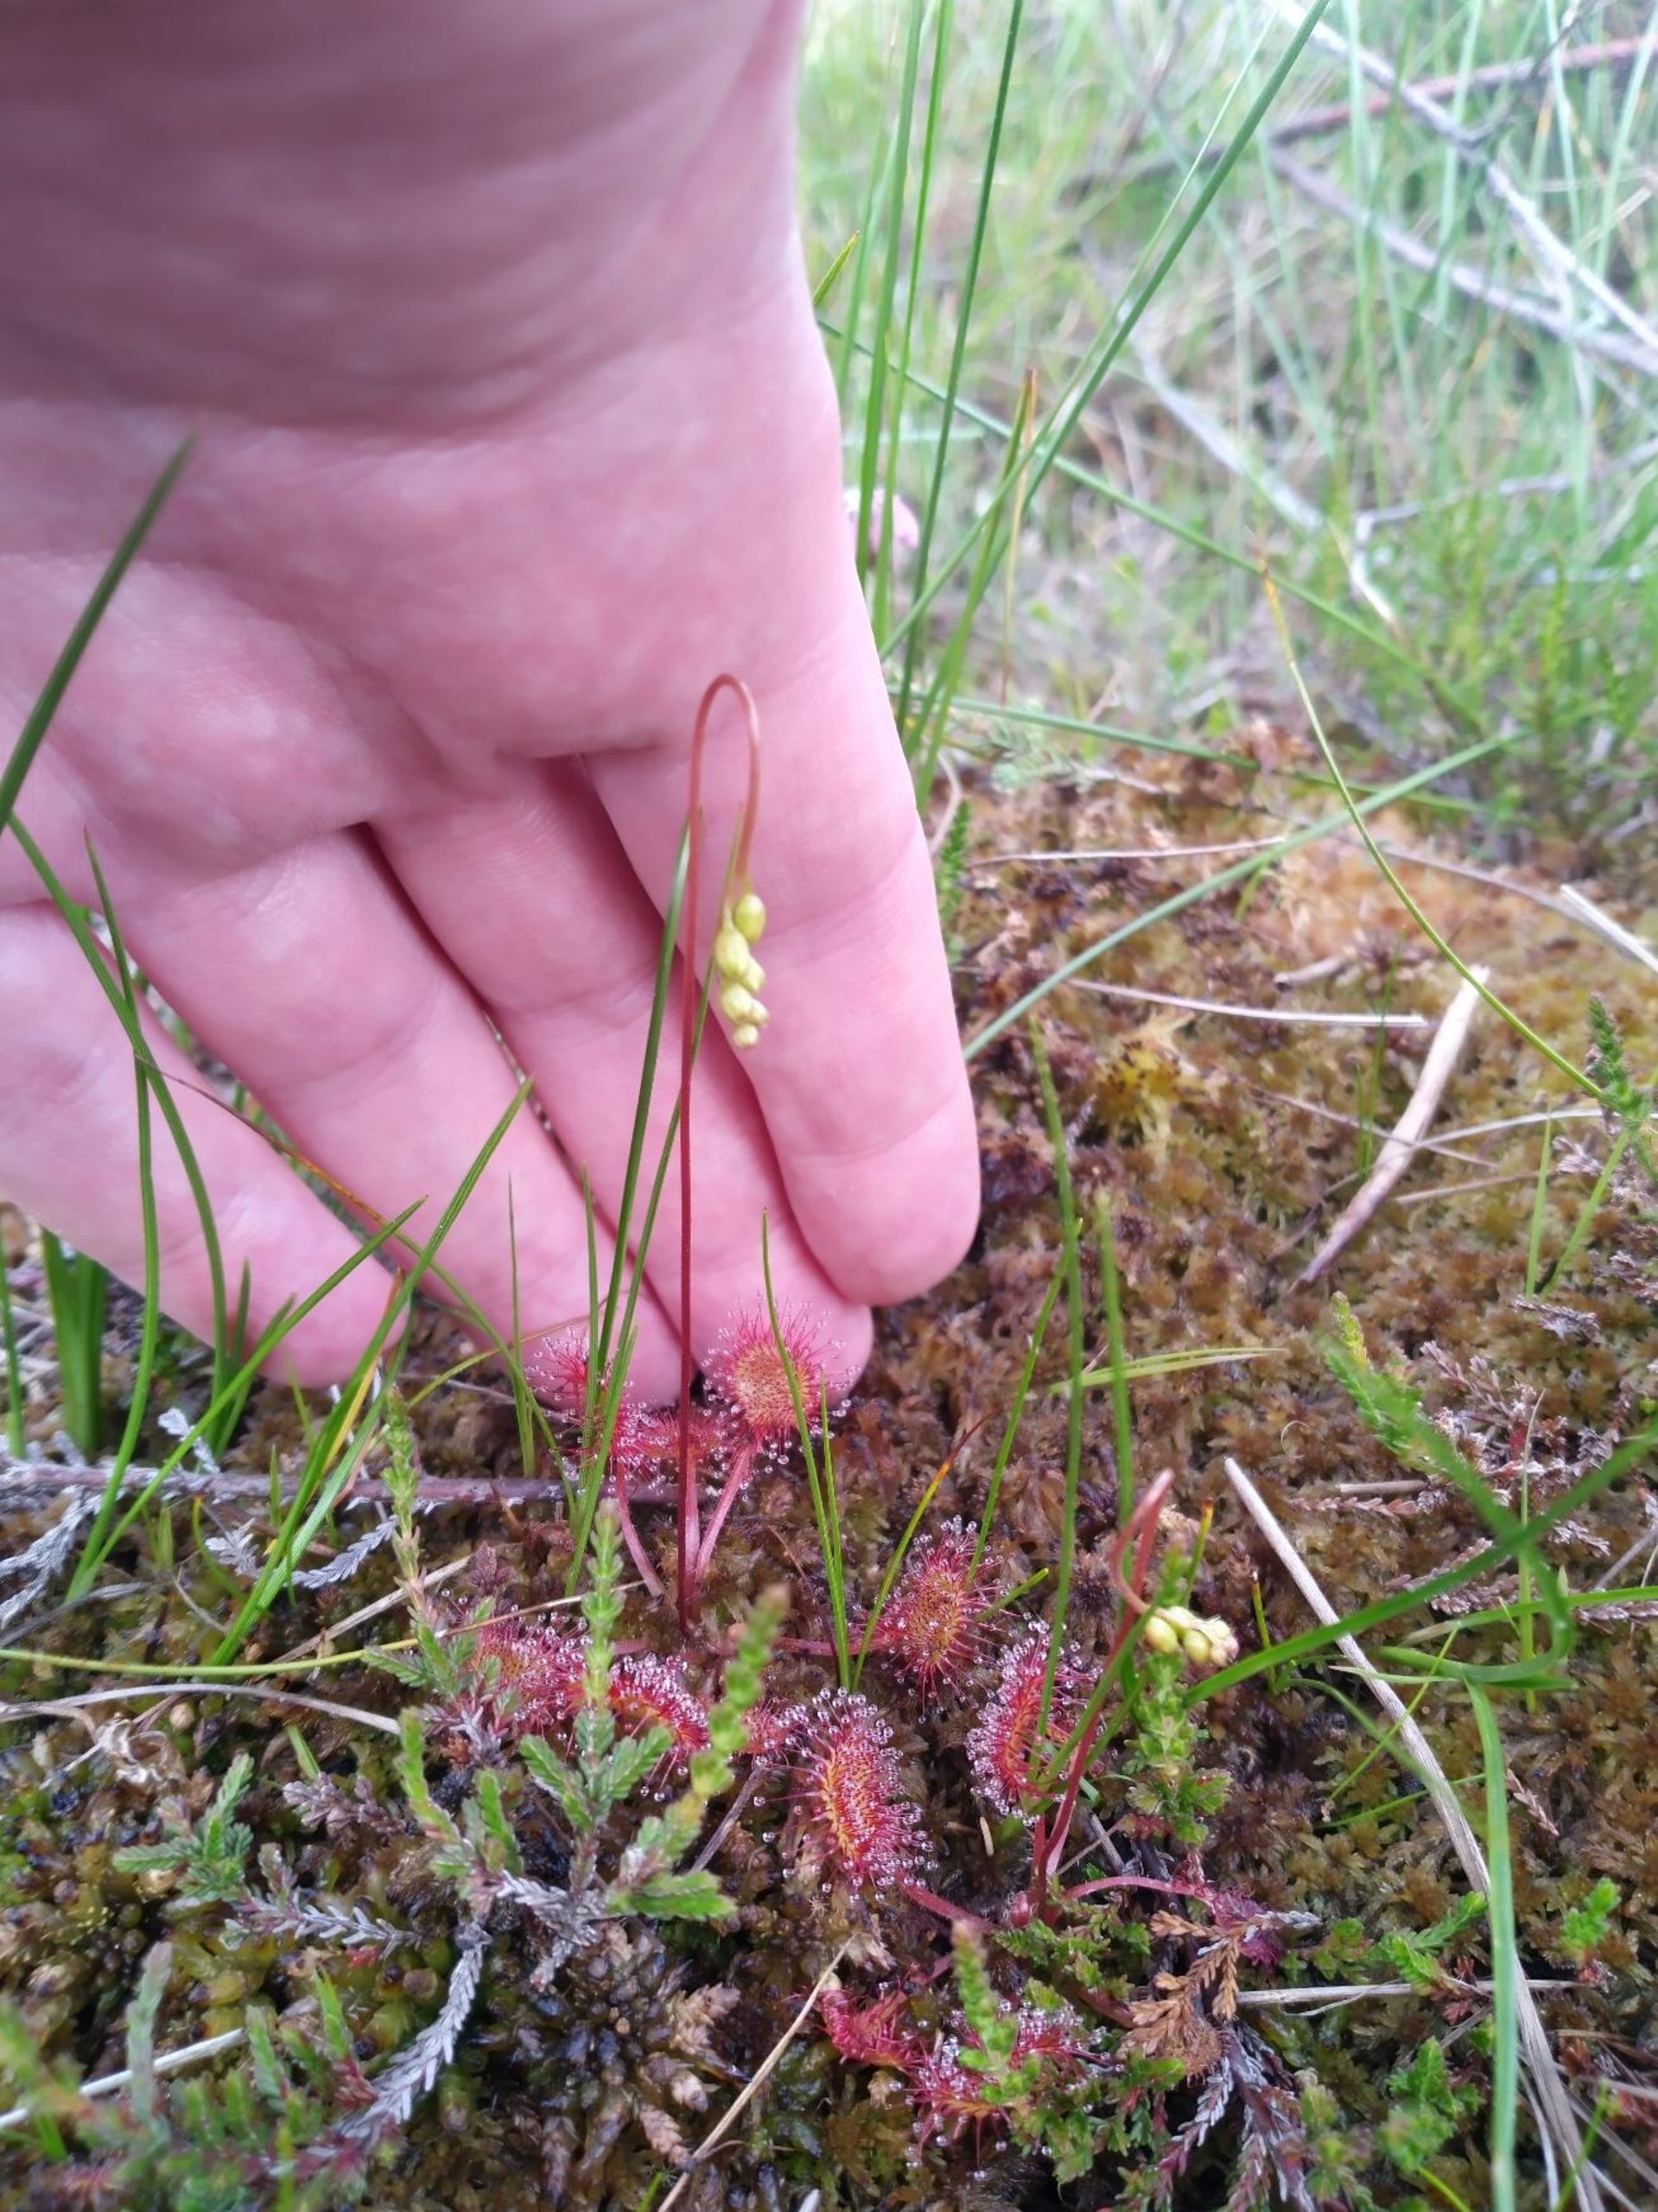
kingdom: Plantae
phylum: Tracheophyta
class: Magnoliopsida
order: Caryophyllales
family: Droseraceae
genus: Drosera
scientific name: Drosera rotundifolia
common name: Rundbladet soldug
